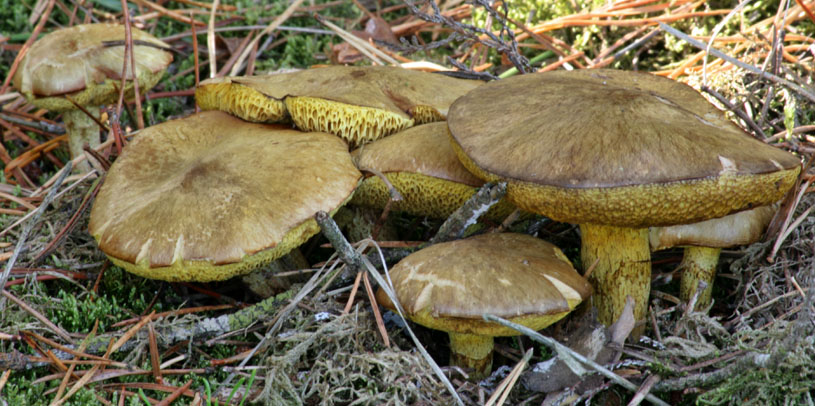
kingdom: Fungi
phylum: Basidiomycota
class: Agaricomycetes
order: Boletales
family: Suillaceae
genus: Suillus
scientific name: Suillus flavidus
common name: mose-slimrørhat
